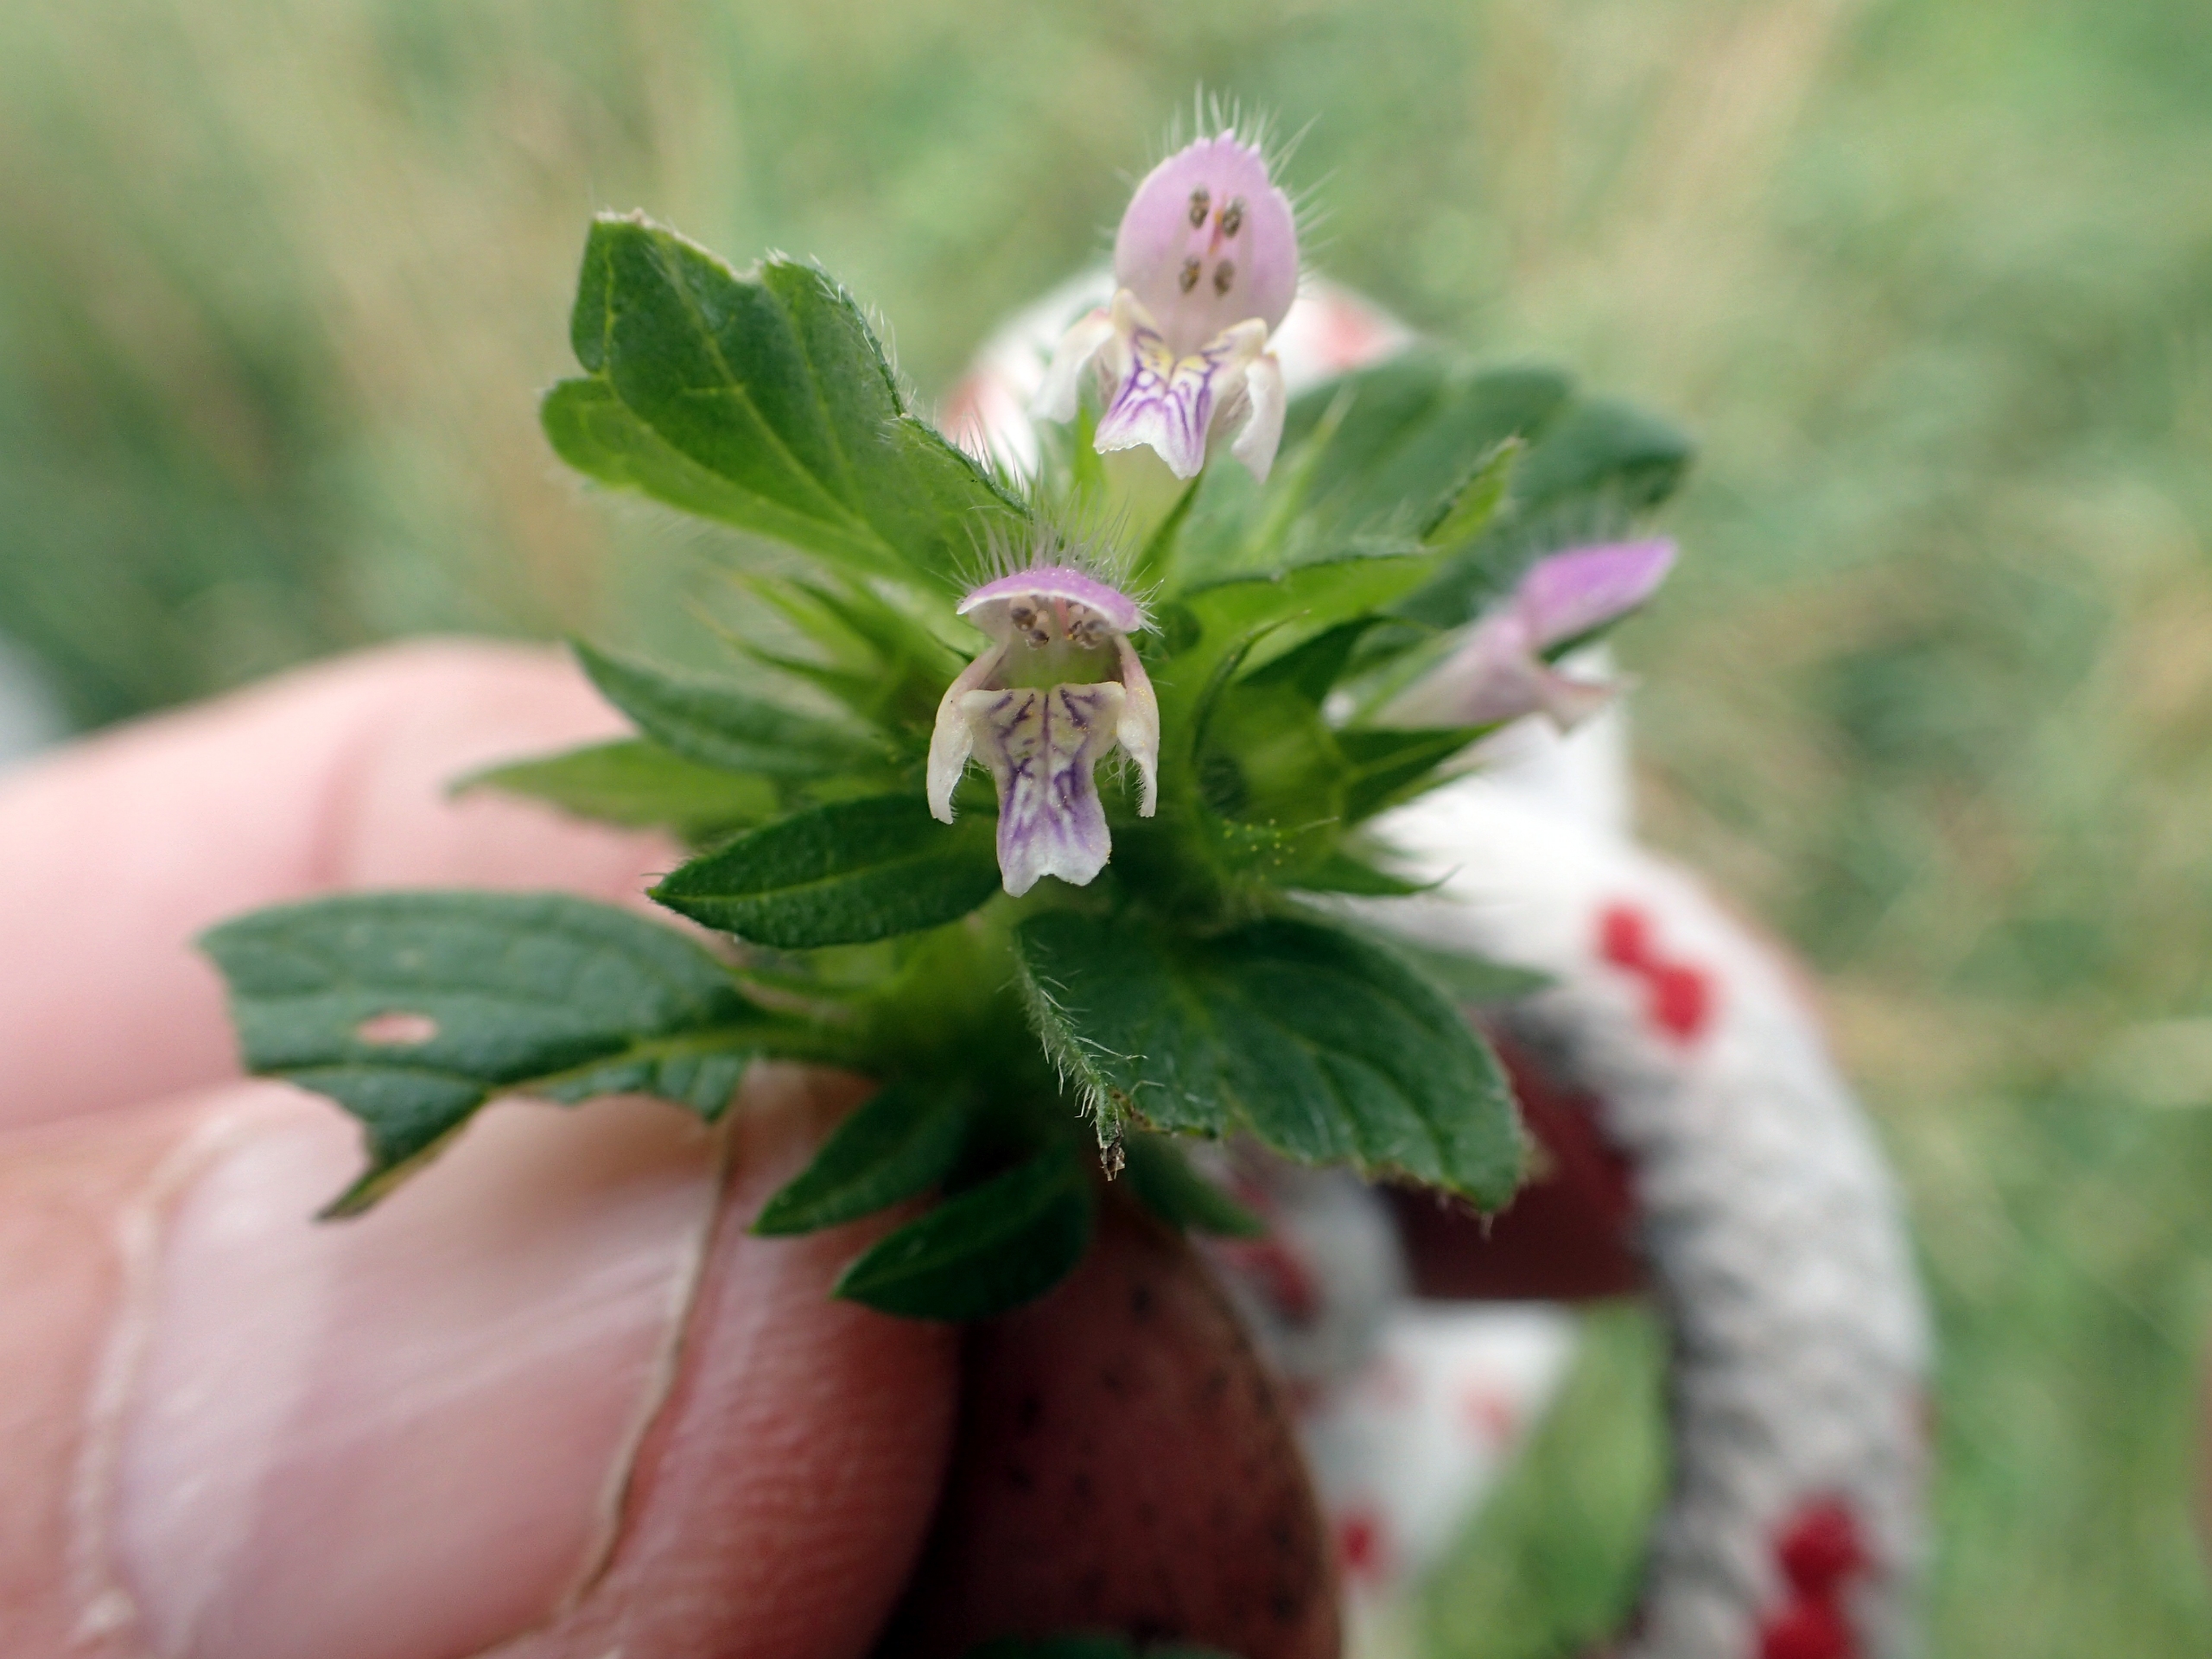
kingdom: Plantae
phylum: Tracheophyta
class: Magnoliopsida
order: Lamiales
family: Lamiaceae
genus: Galeopsis
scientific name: Galeopsis bifida
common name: Skov-hanekro
